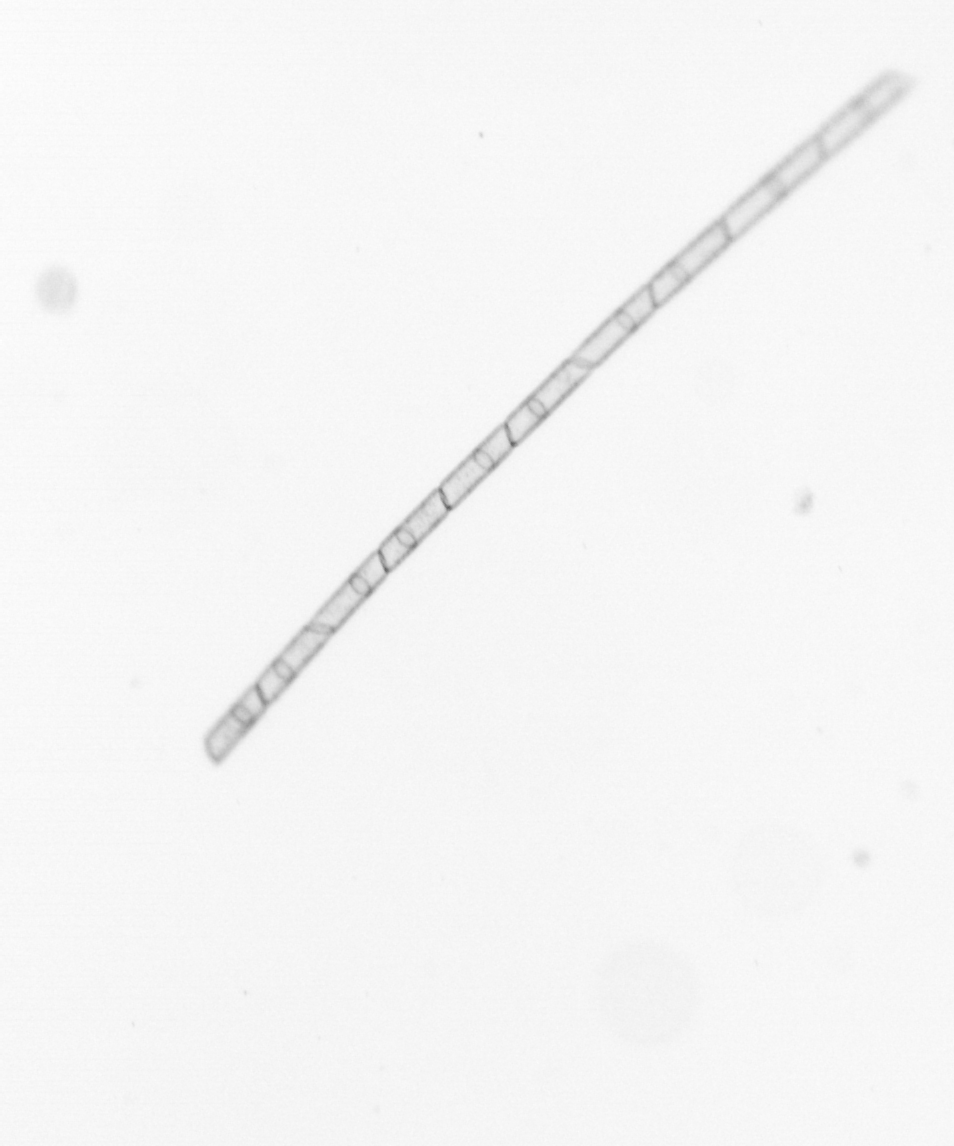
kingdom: Chromista
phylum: Ochrophyta
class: Bacillariophyceae
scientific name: Bacillariophyceae
